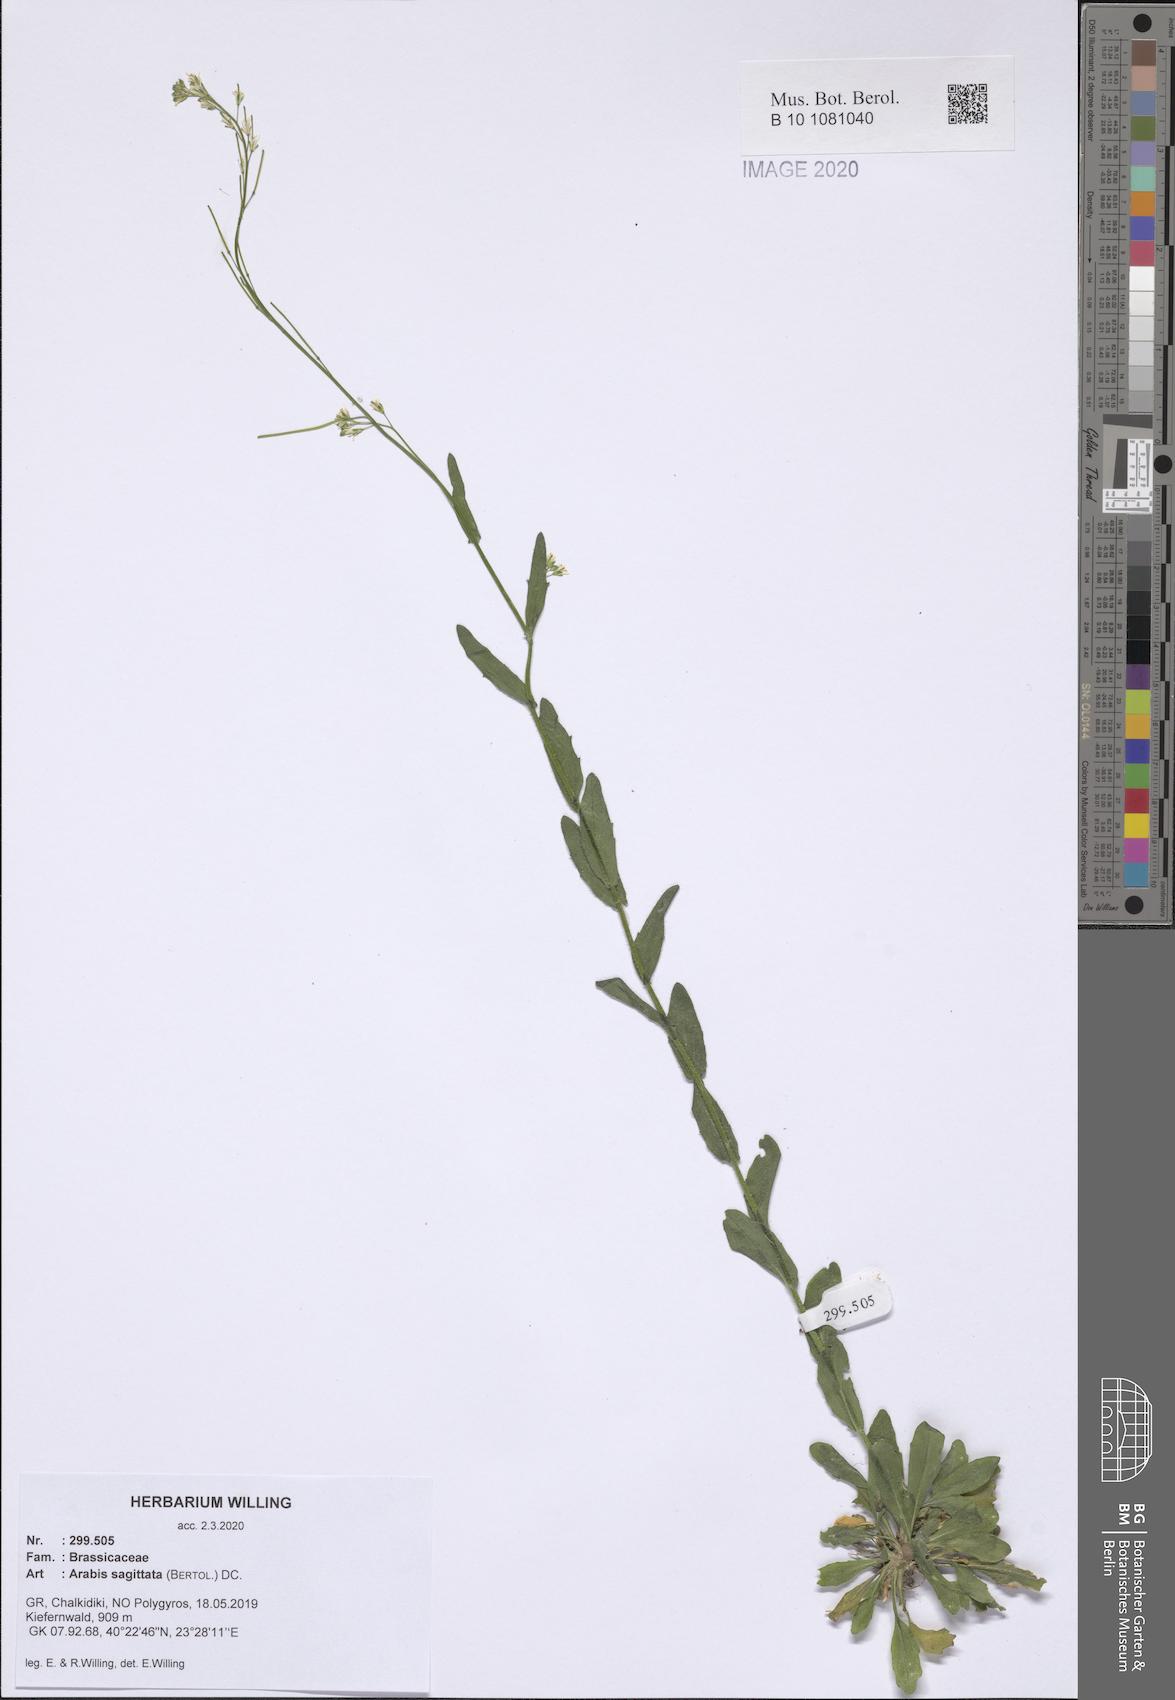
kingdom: Plantae
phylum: Tracheophyta
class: Magnoliopsida
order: Brassicales
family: Brassicaceae
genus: Arabis
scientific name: Arabis sagittata
